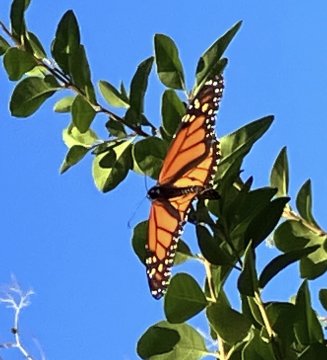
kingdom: Animalia
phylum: Arthropoda
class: Insecta
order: Lepidoptera
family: Nymphalidae
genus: Danaus
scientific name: Danaus plexippus
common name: Monarch
